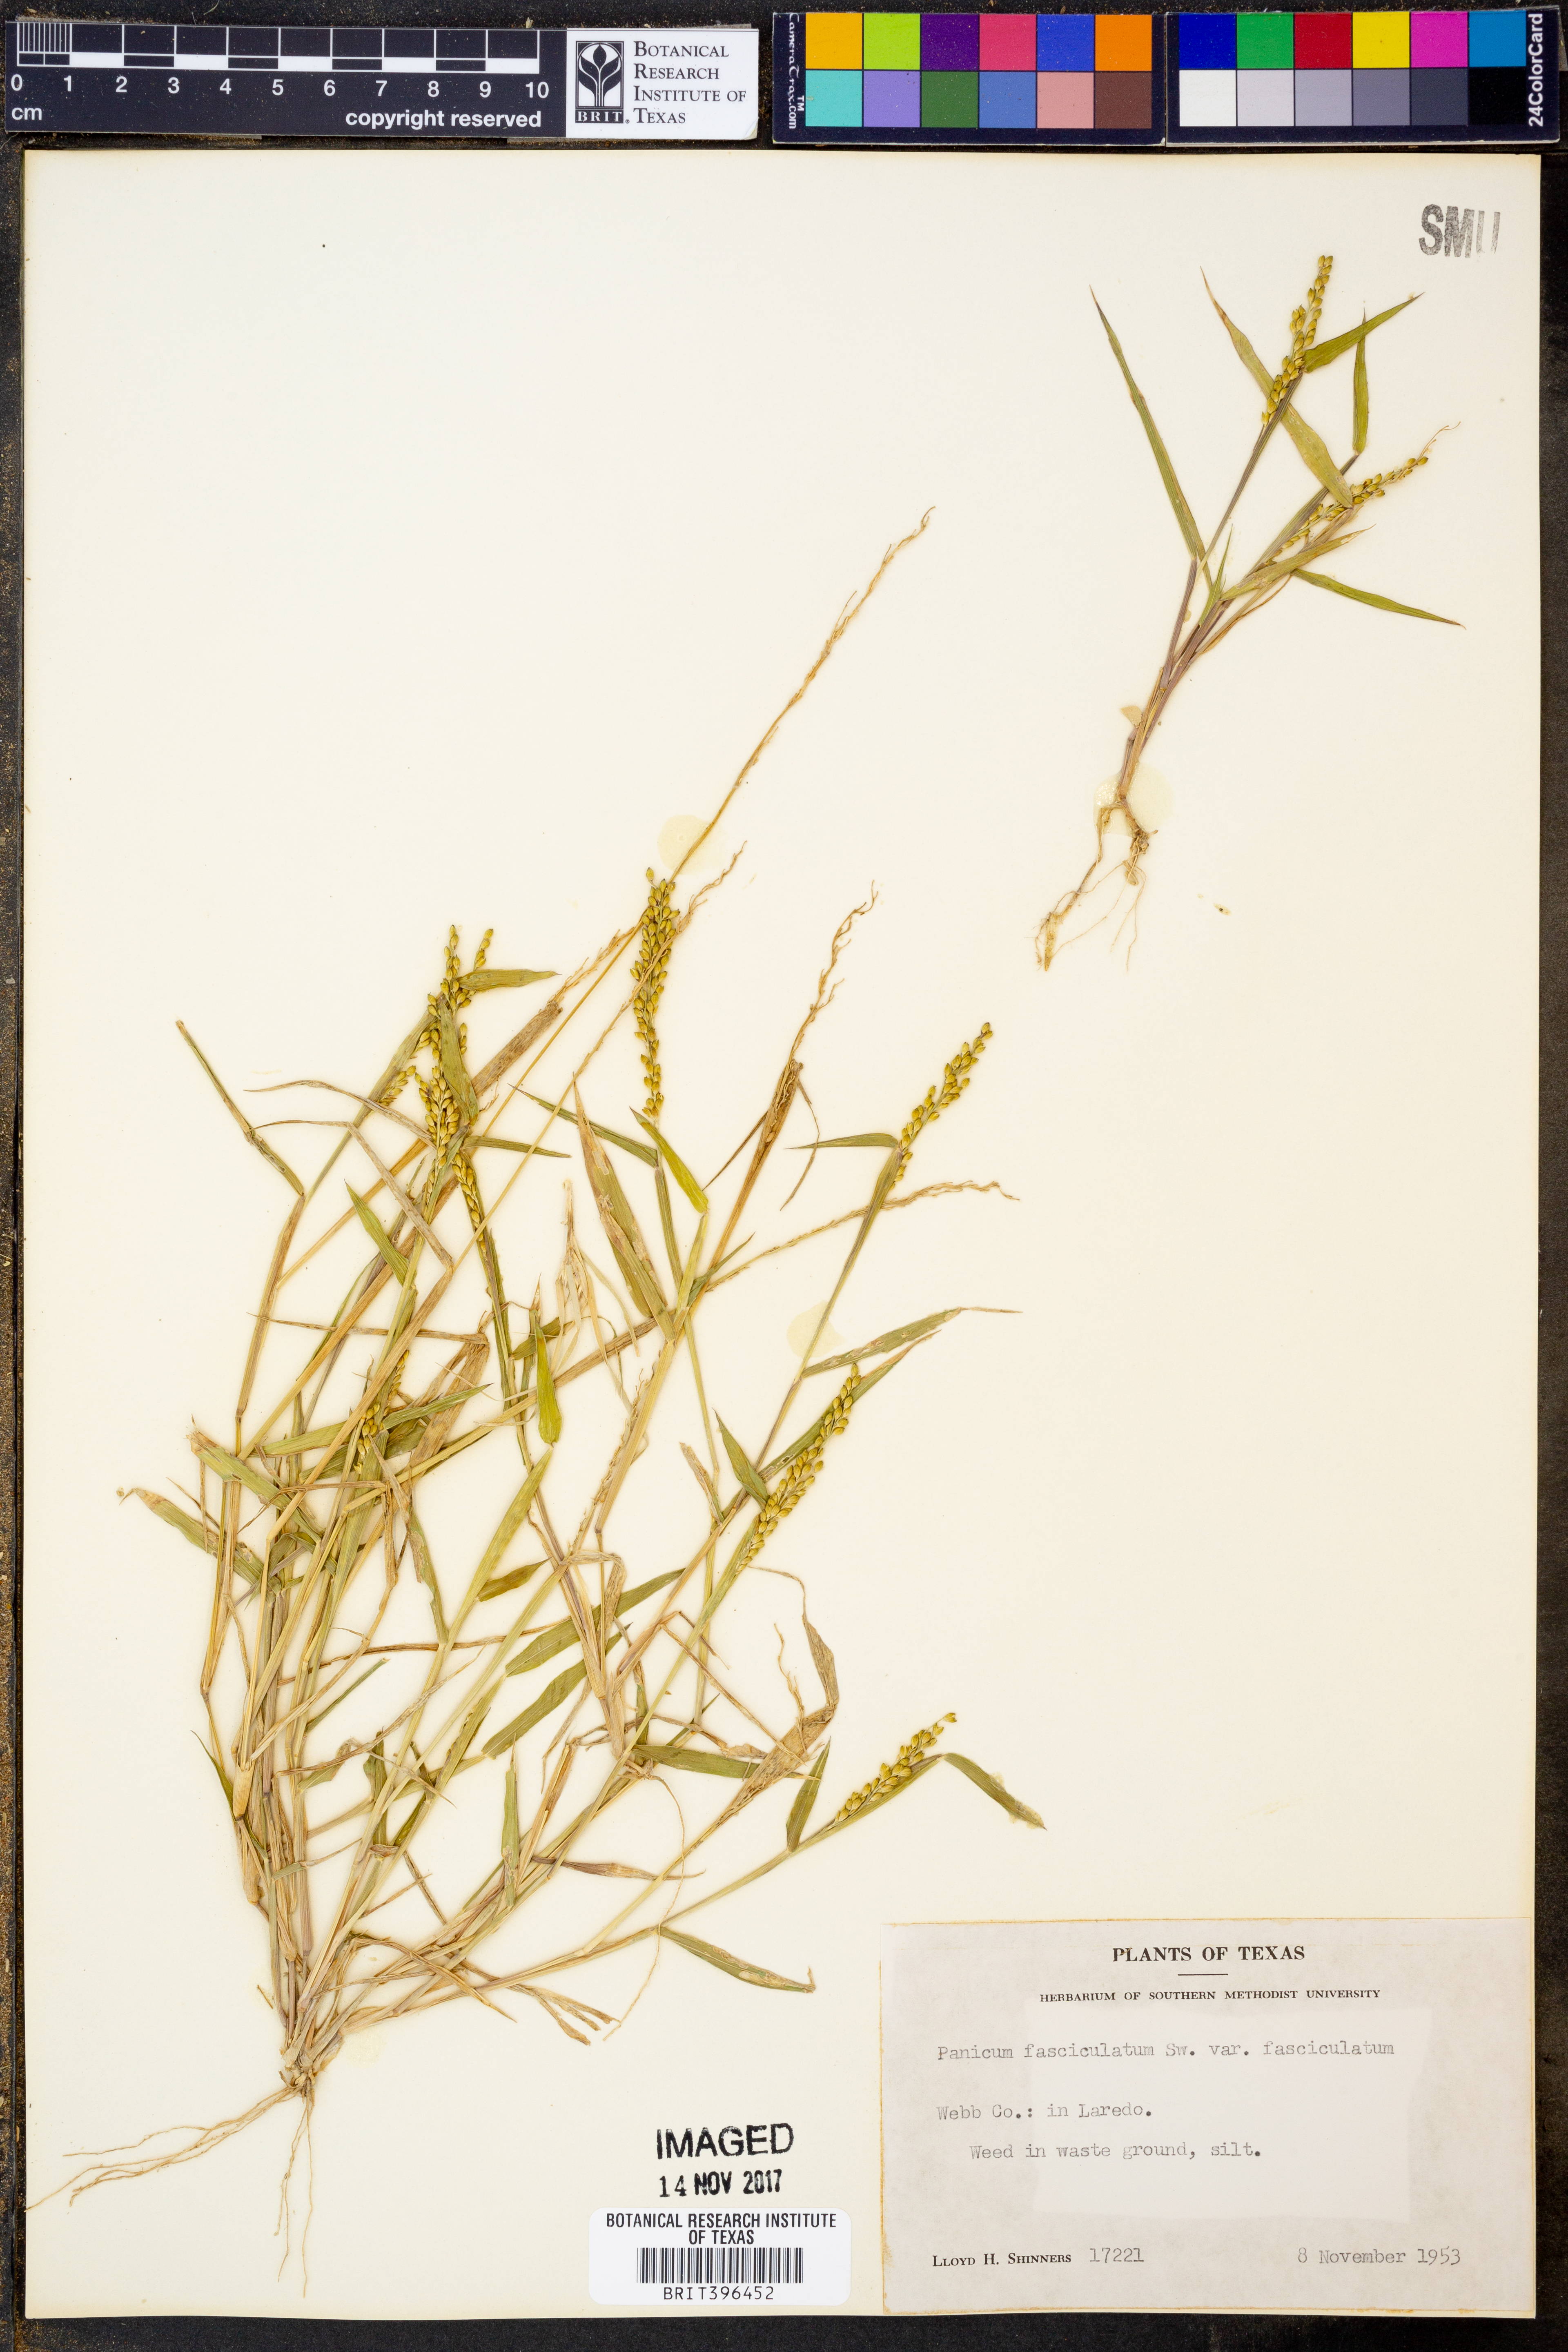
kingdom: Plantae
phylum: Tracheophyta
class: Liliopsida
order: Poales
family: Poaceae
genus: Urochloa
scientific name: Urochloa fusca
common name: Browntop signal grass
